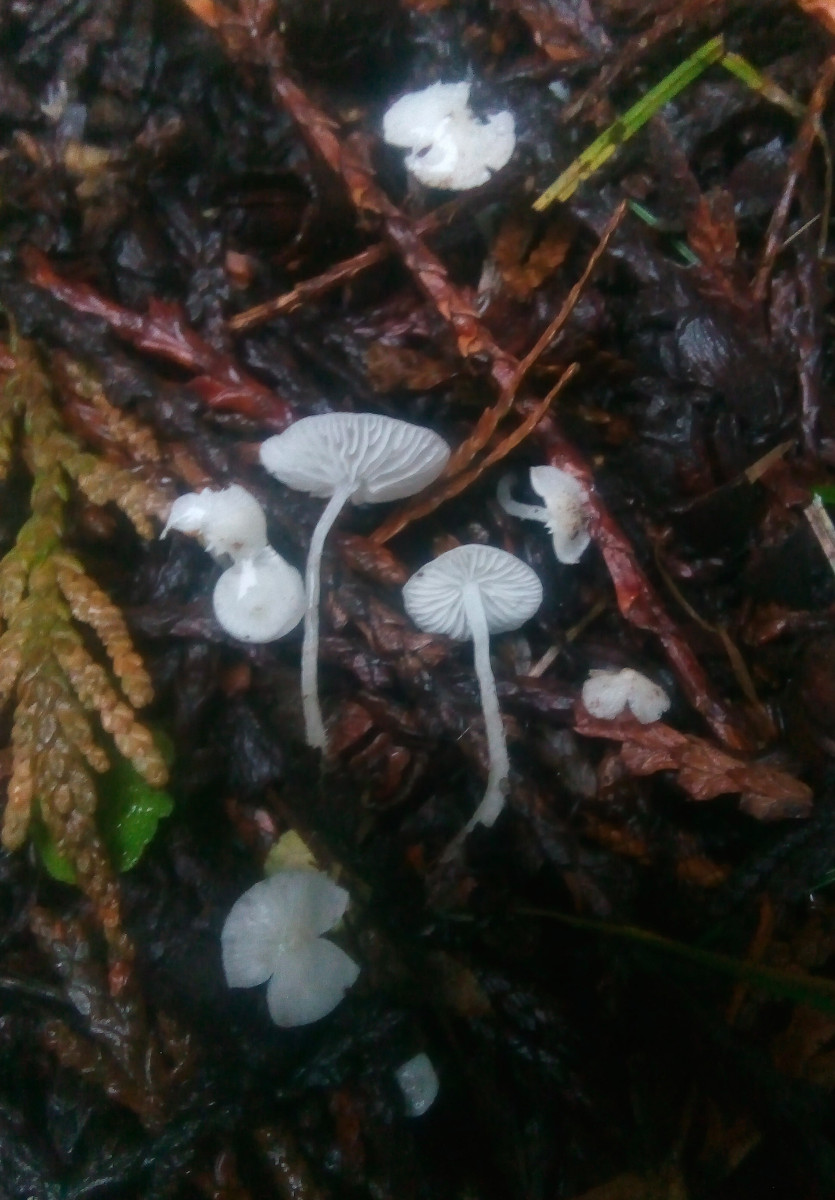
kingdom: Fungi
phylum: Basidiomycota
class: Agaricomycetes
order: Agaricales
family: Mycenaceae
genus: Hemimycena
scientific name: Hemimycena lactea
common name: mælkehvid huesvamp
